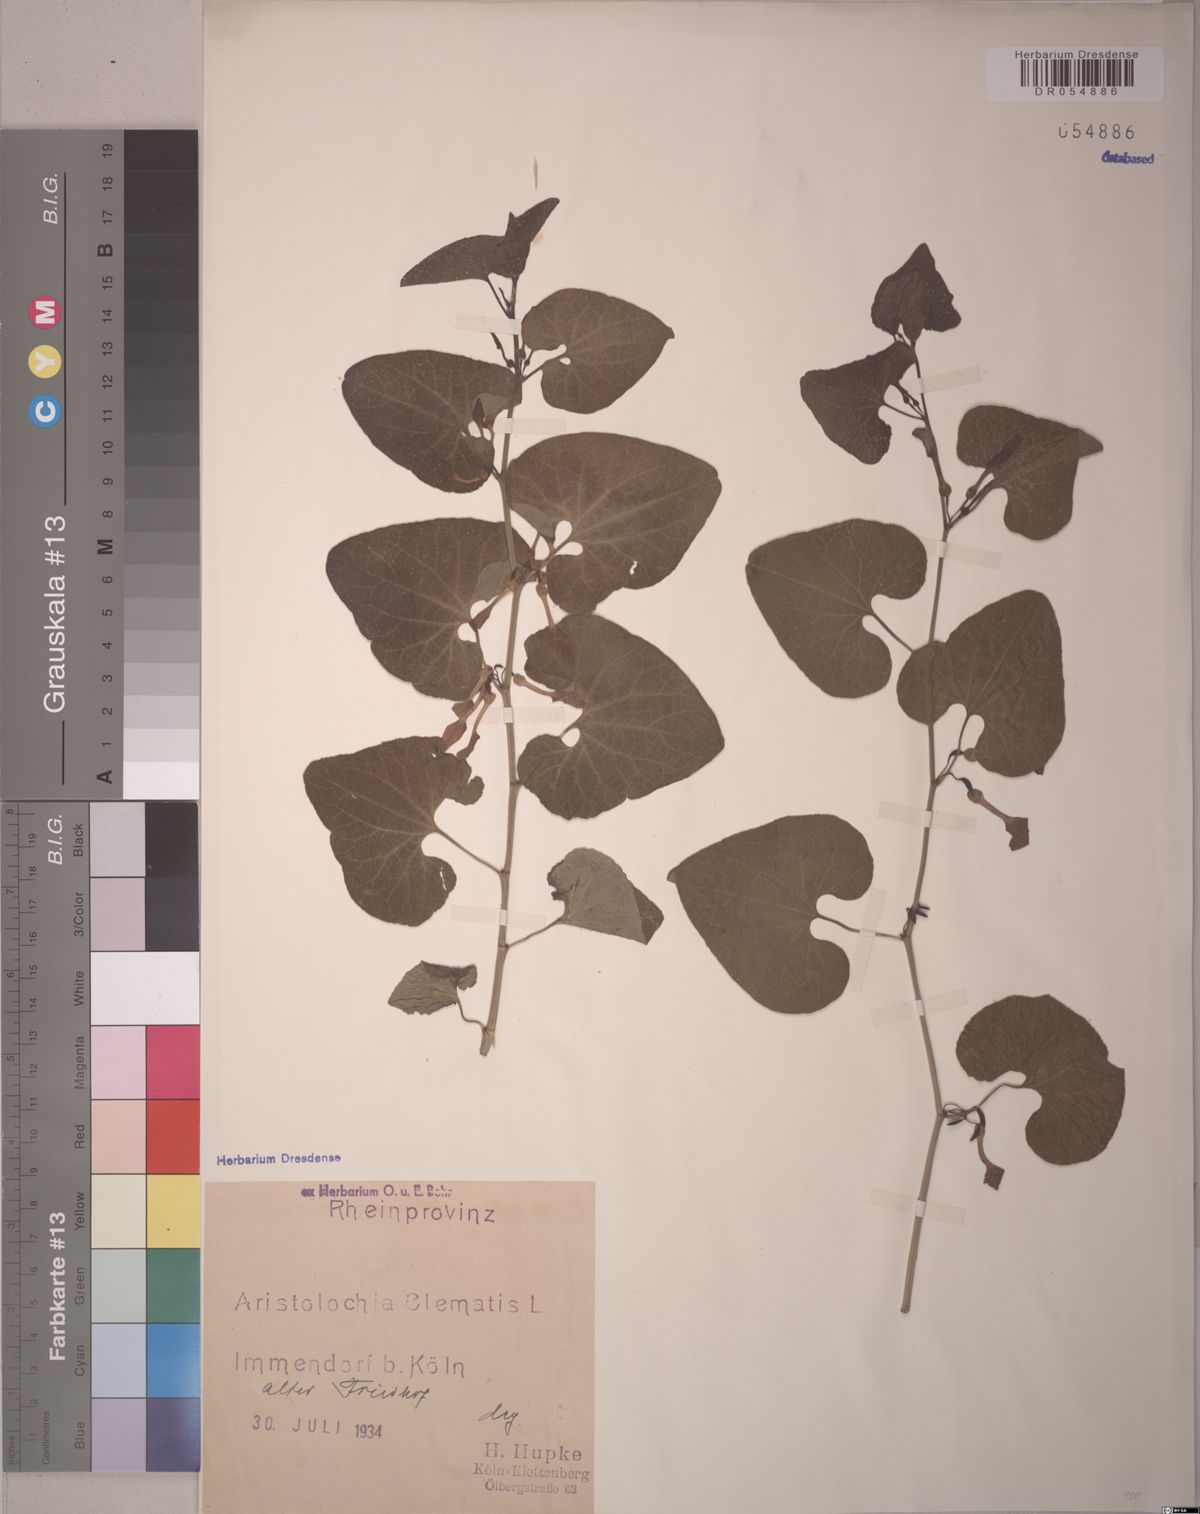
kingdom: Plantae
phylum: Tracheophyta
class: Magnoliopsida
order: Piperales
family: Aristolochiaceae
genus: Aristolochia
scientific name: Aristolochia clematitis
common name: Birthwort
